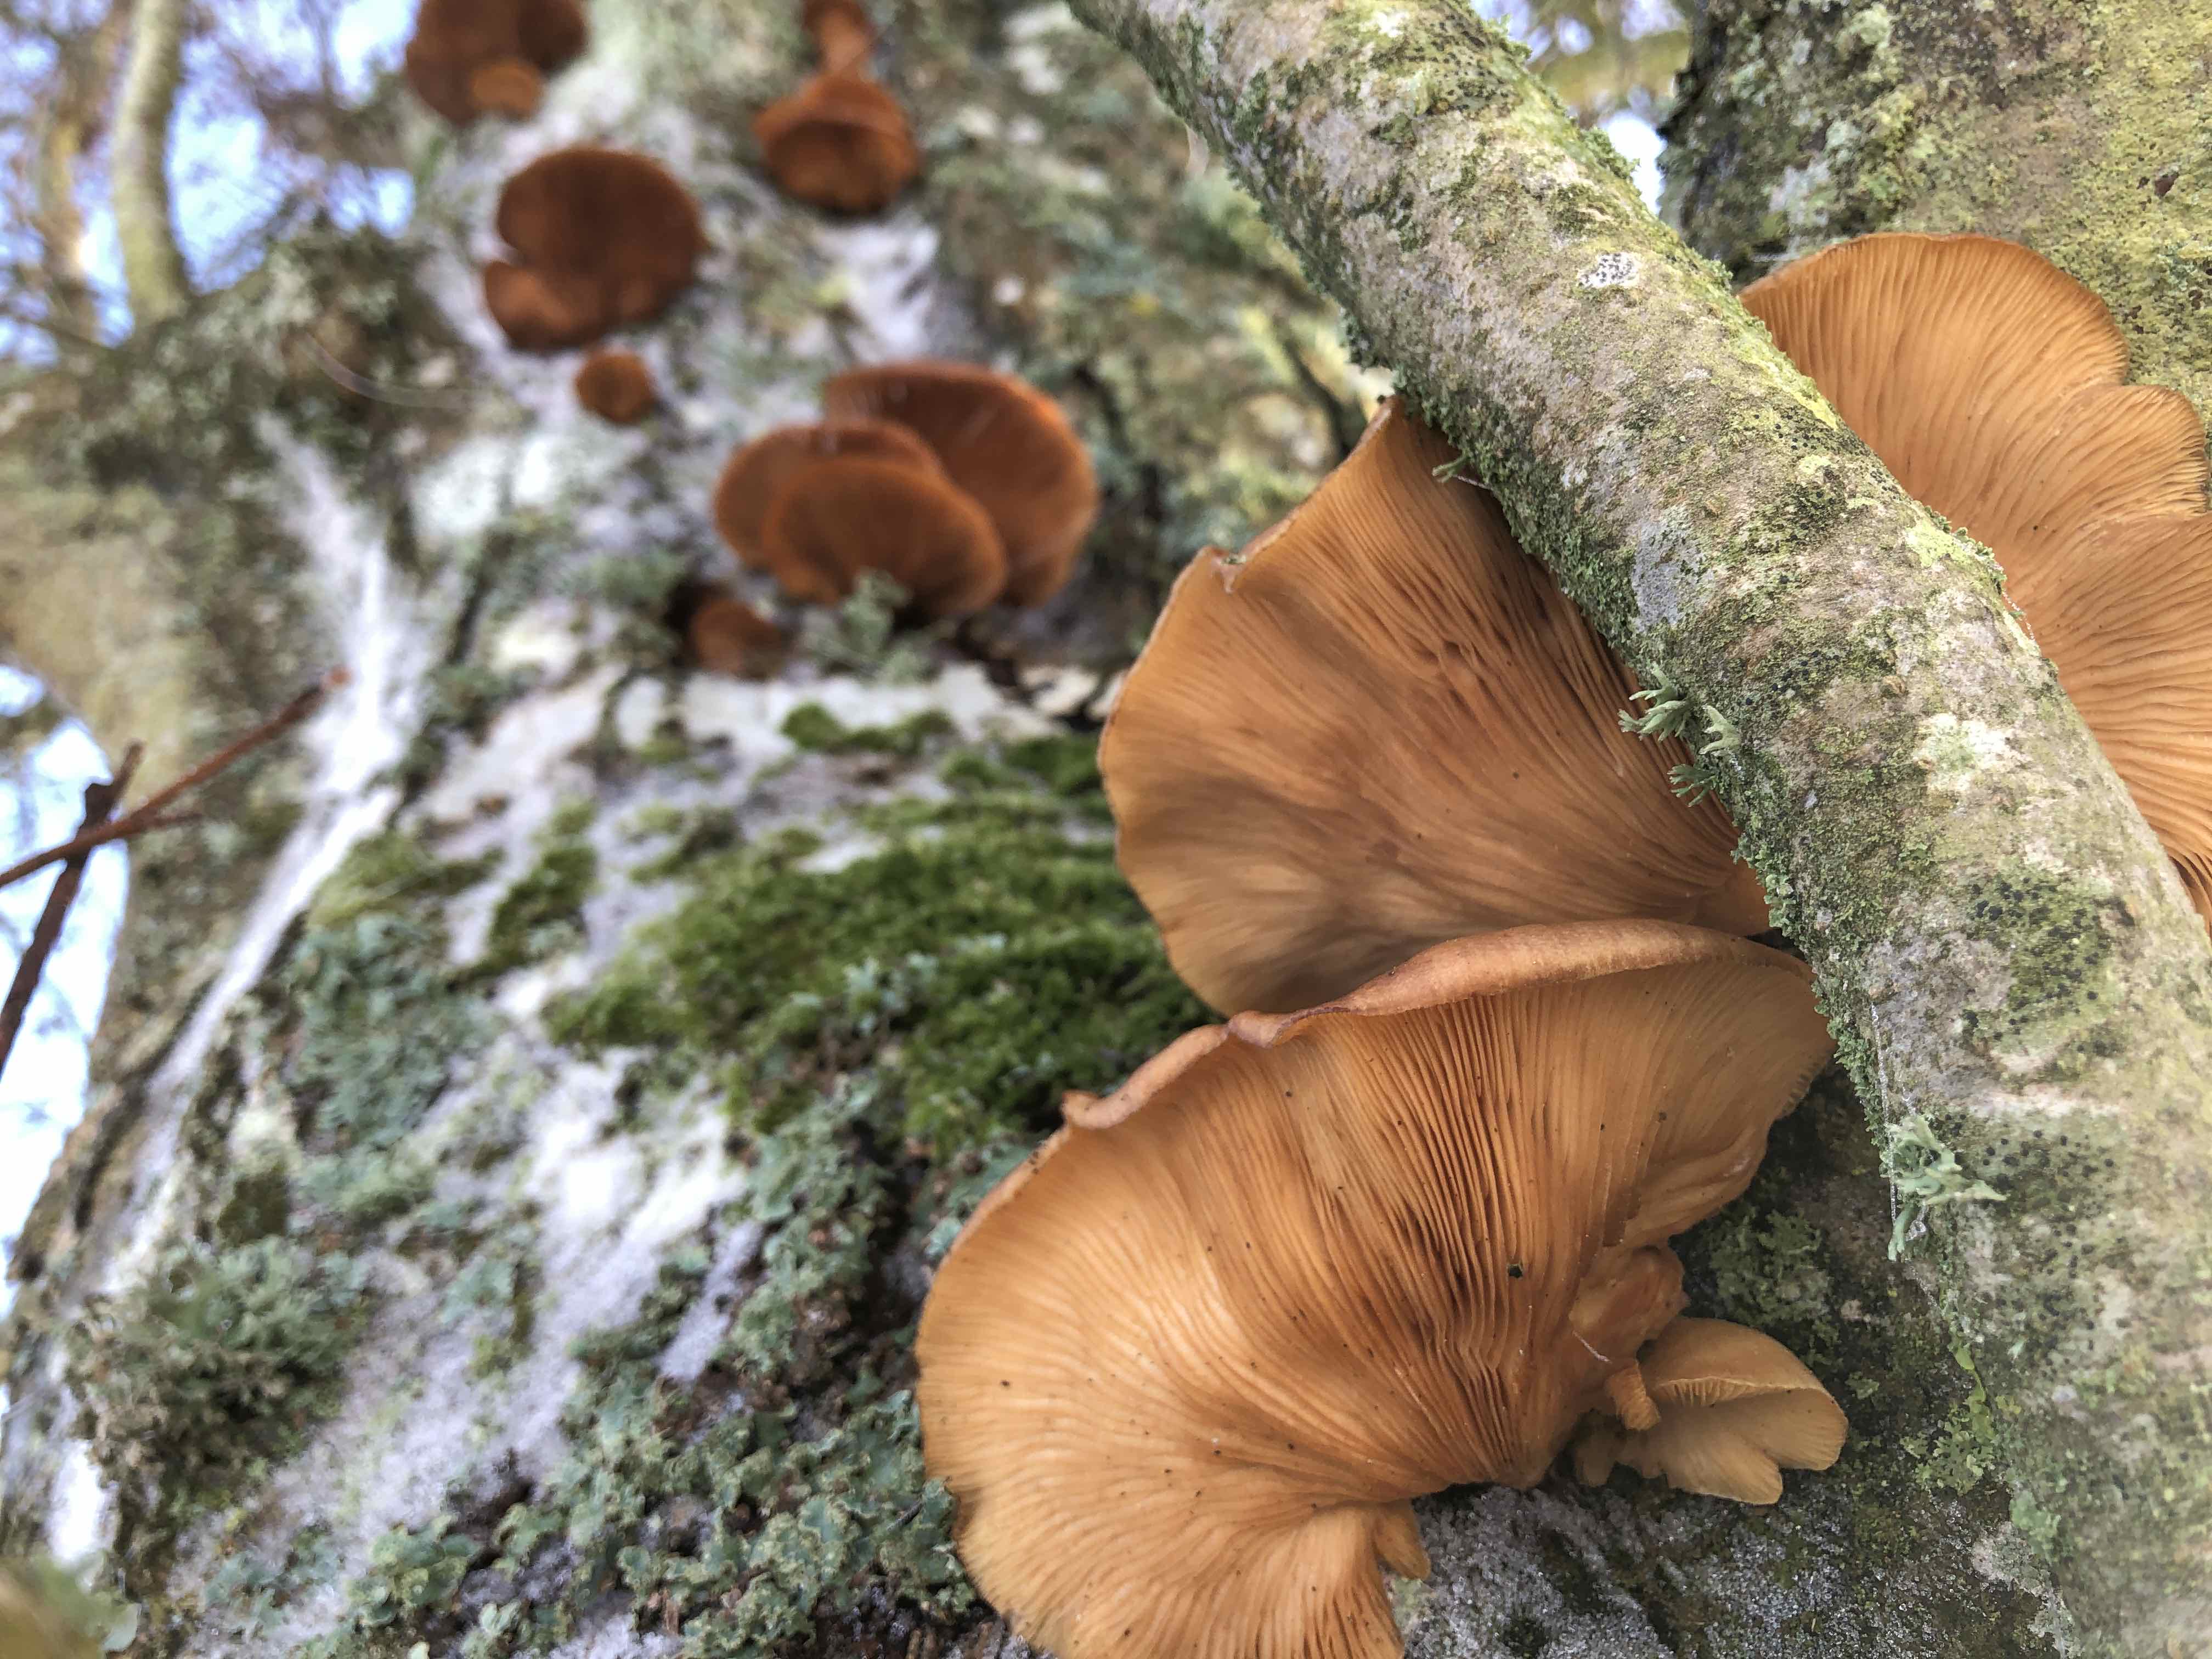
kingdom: Fungi
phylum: Basidiomycota
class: Agaricomycetes
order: Agaricales
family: Sarcomyxaceae
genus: Sarcomyxa
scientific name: Sarcomyxa serotina
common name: gummihat
